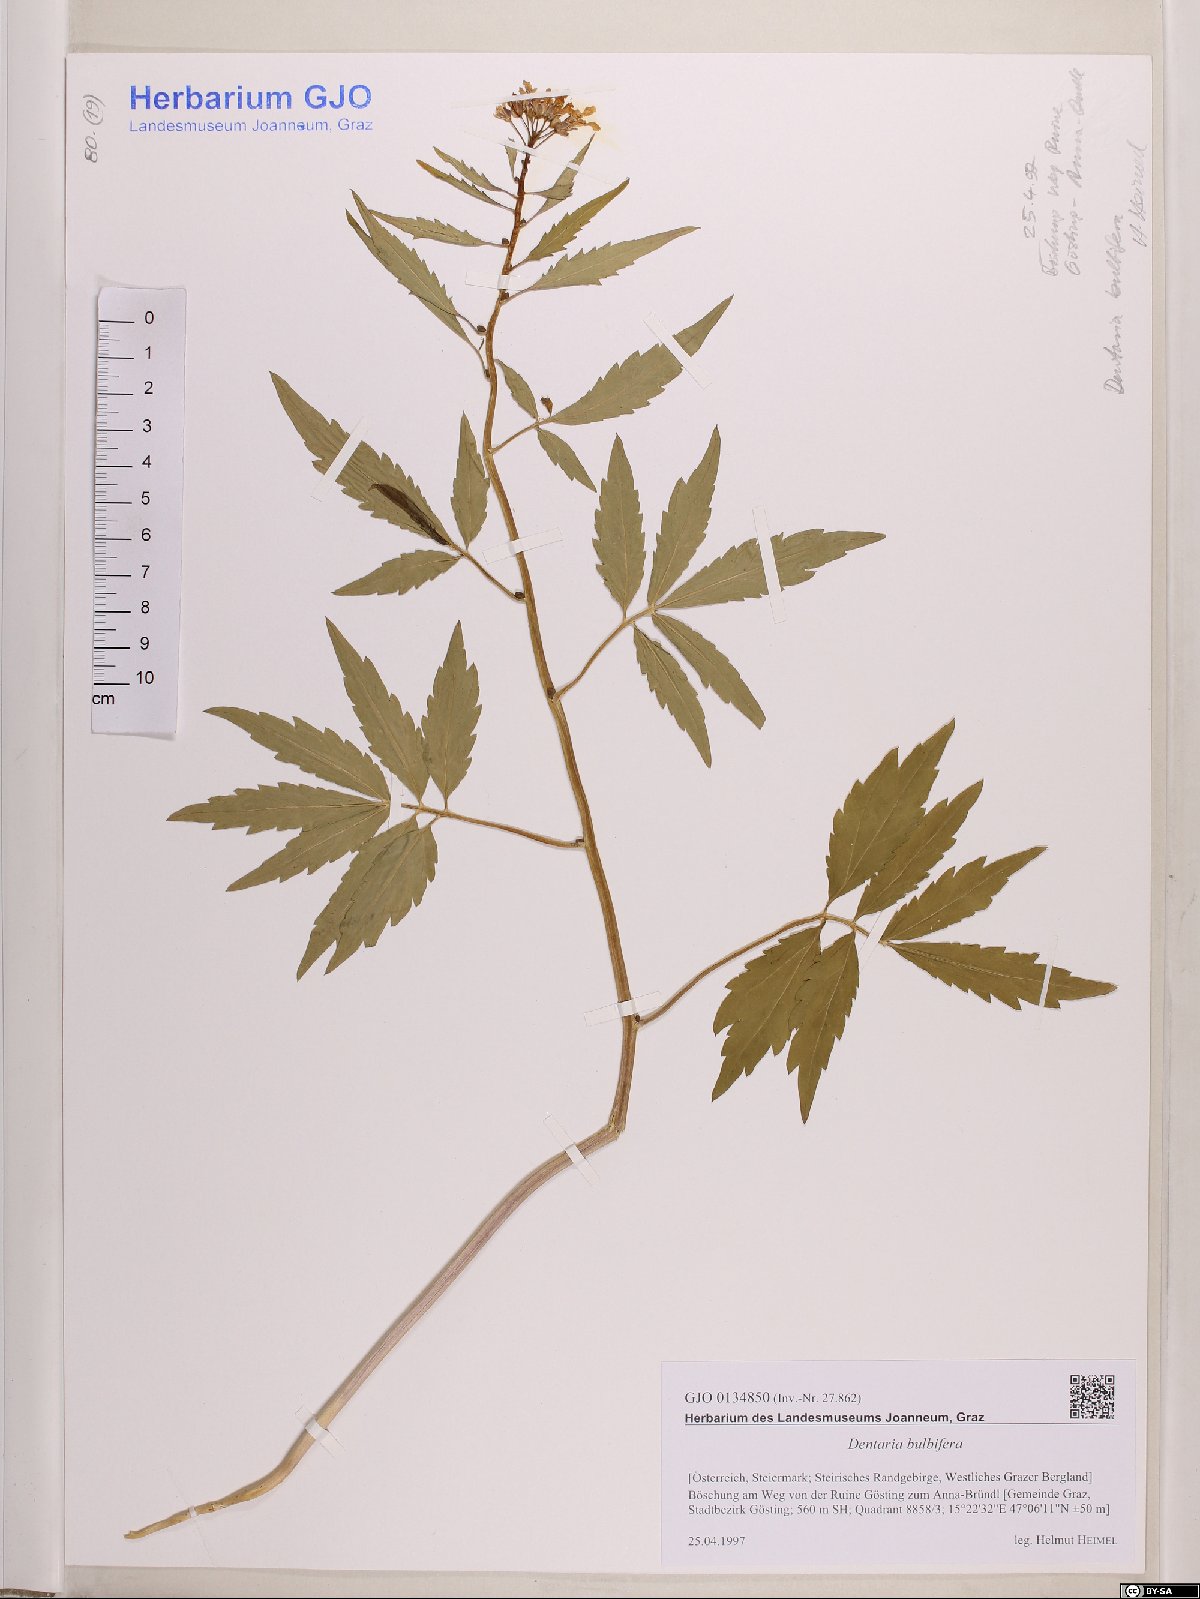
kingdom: Plantae
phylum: Tracheophyta
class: Magnoliopsida
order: Brassicales
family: Brassicaceae
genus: Cardamine
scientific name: Cardamine bulbifera
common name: Coralroot bittercress
